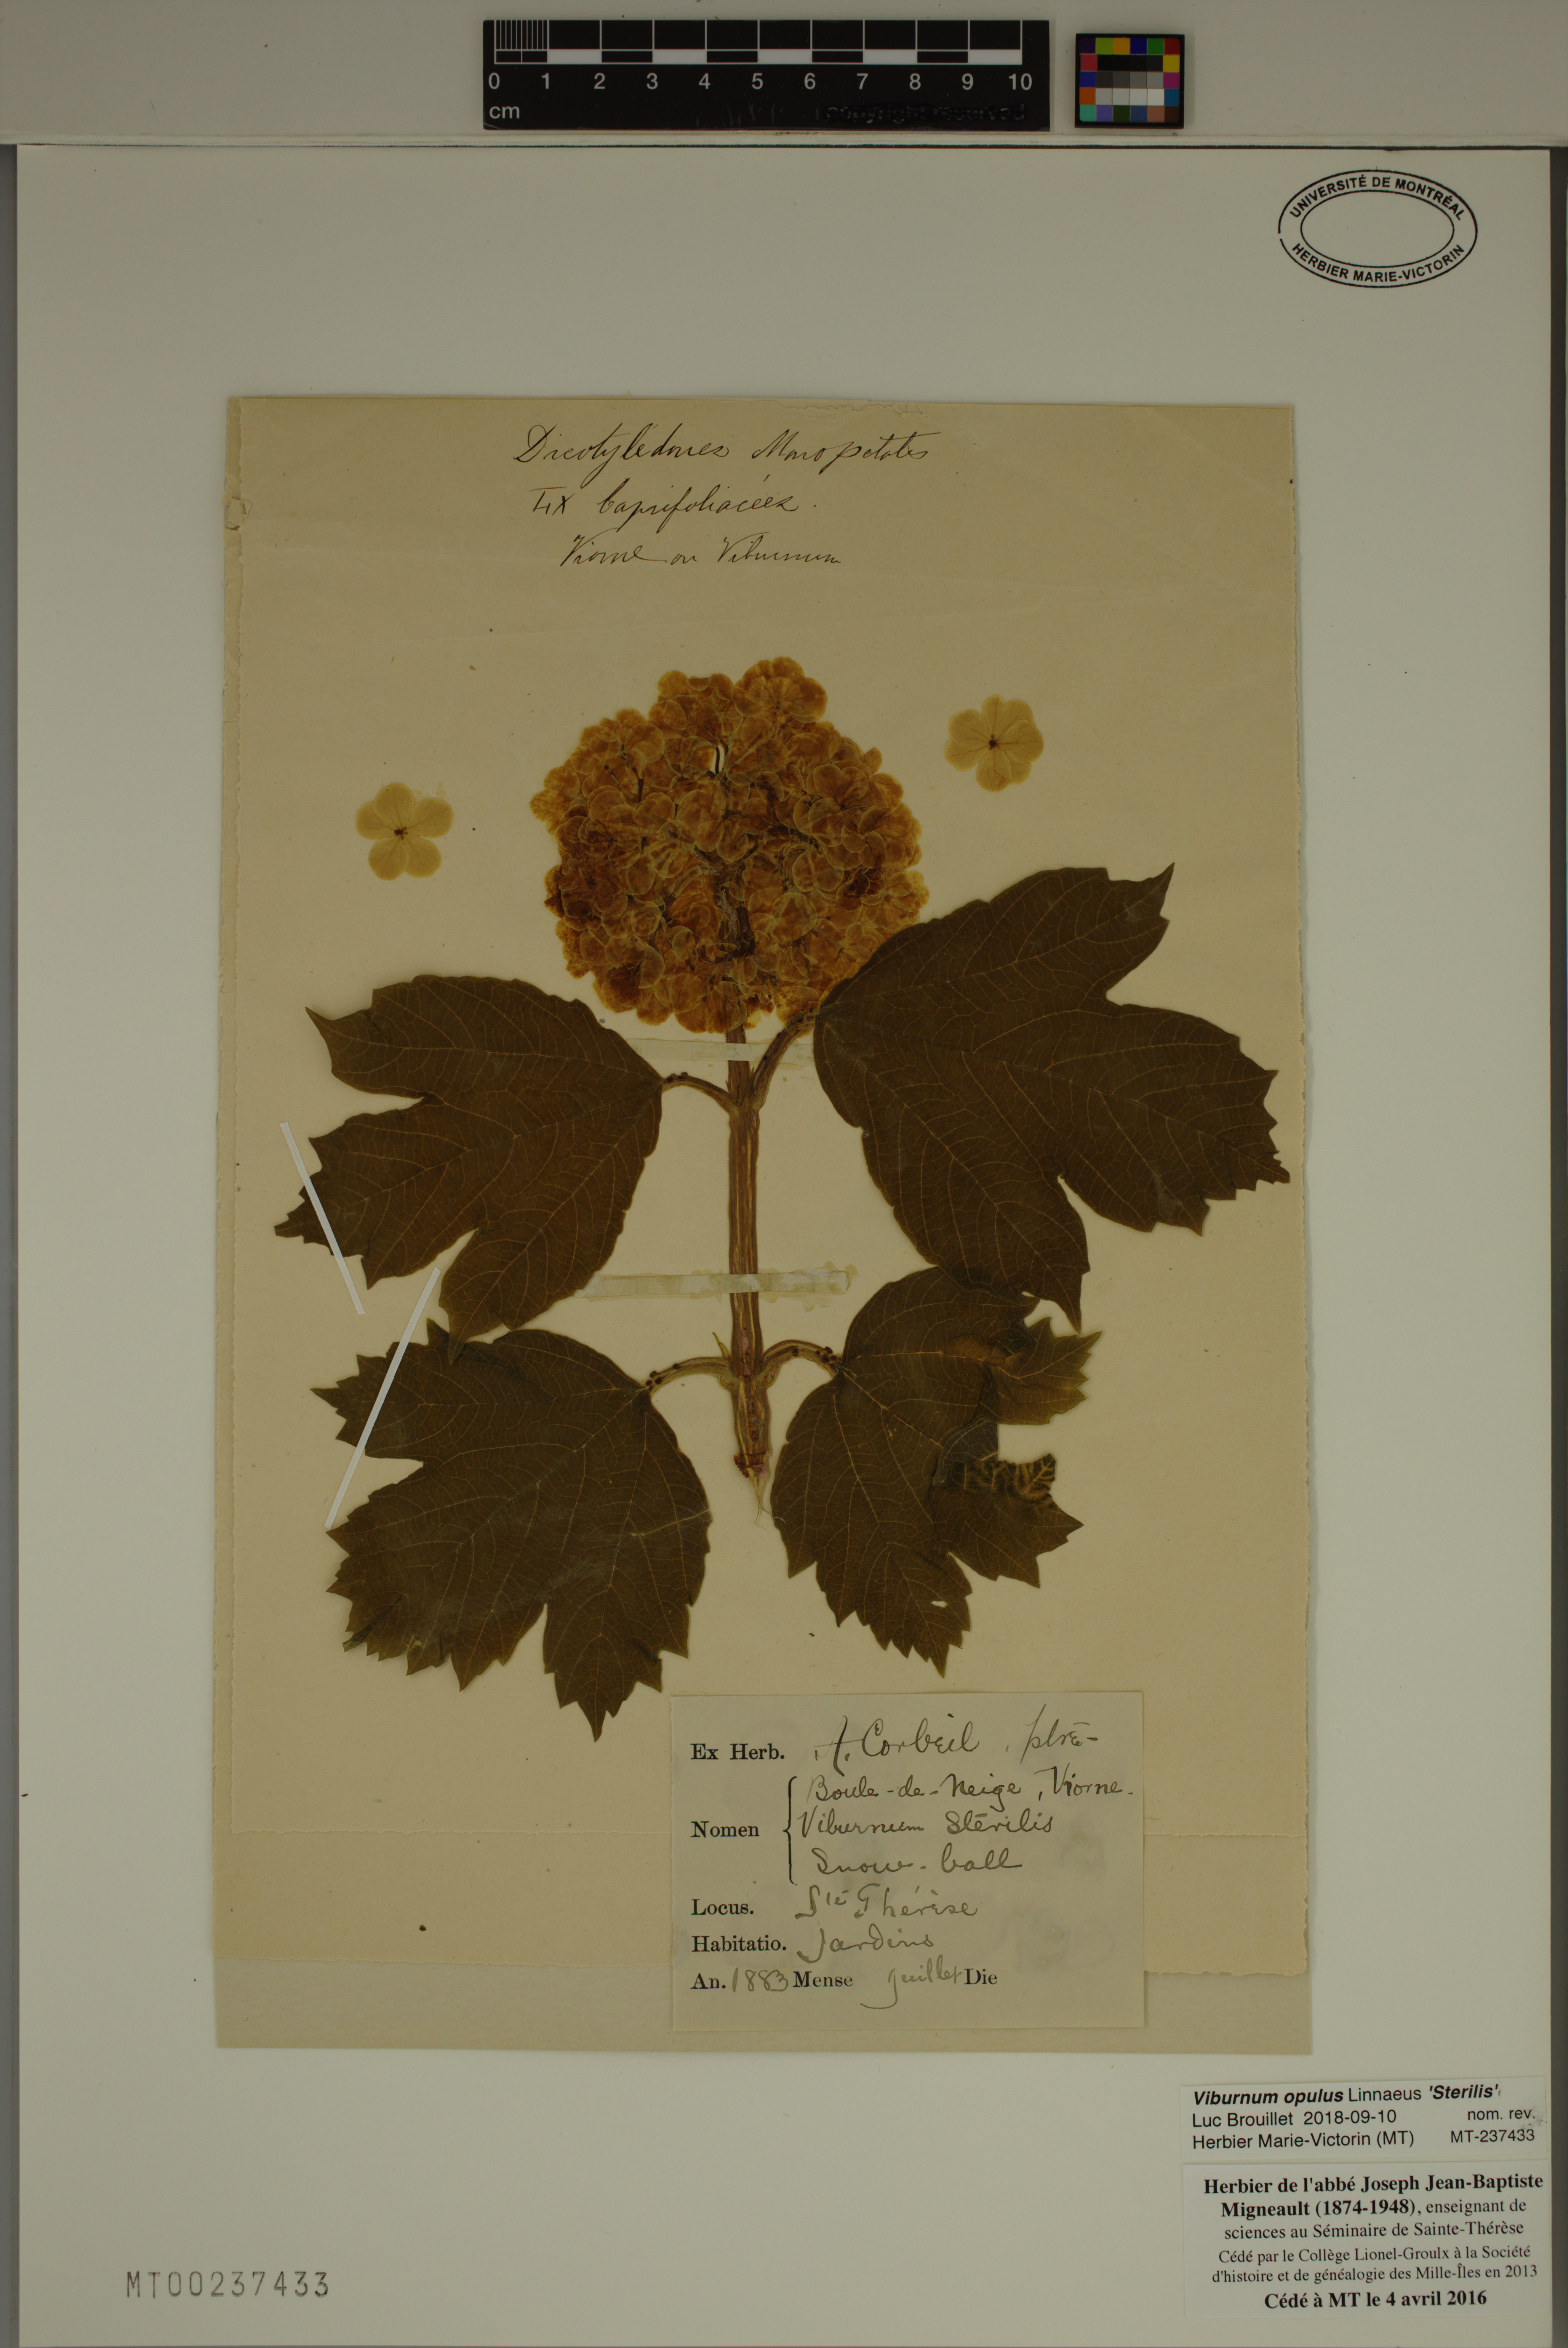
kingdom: Plantae
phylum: Tracheophyta
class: Magnoliopsida
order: Dipsacales
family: Viburnaceae
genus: Viburnum
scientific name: Viburnum opulus
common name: Guelder-rose
